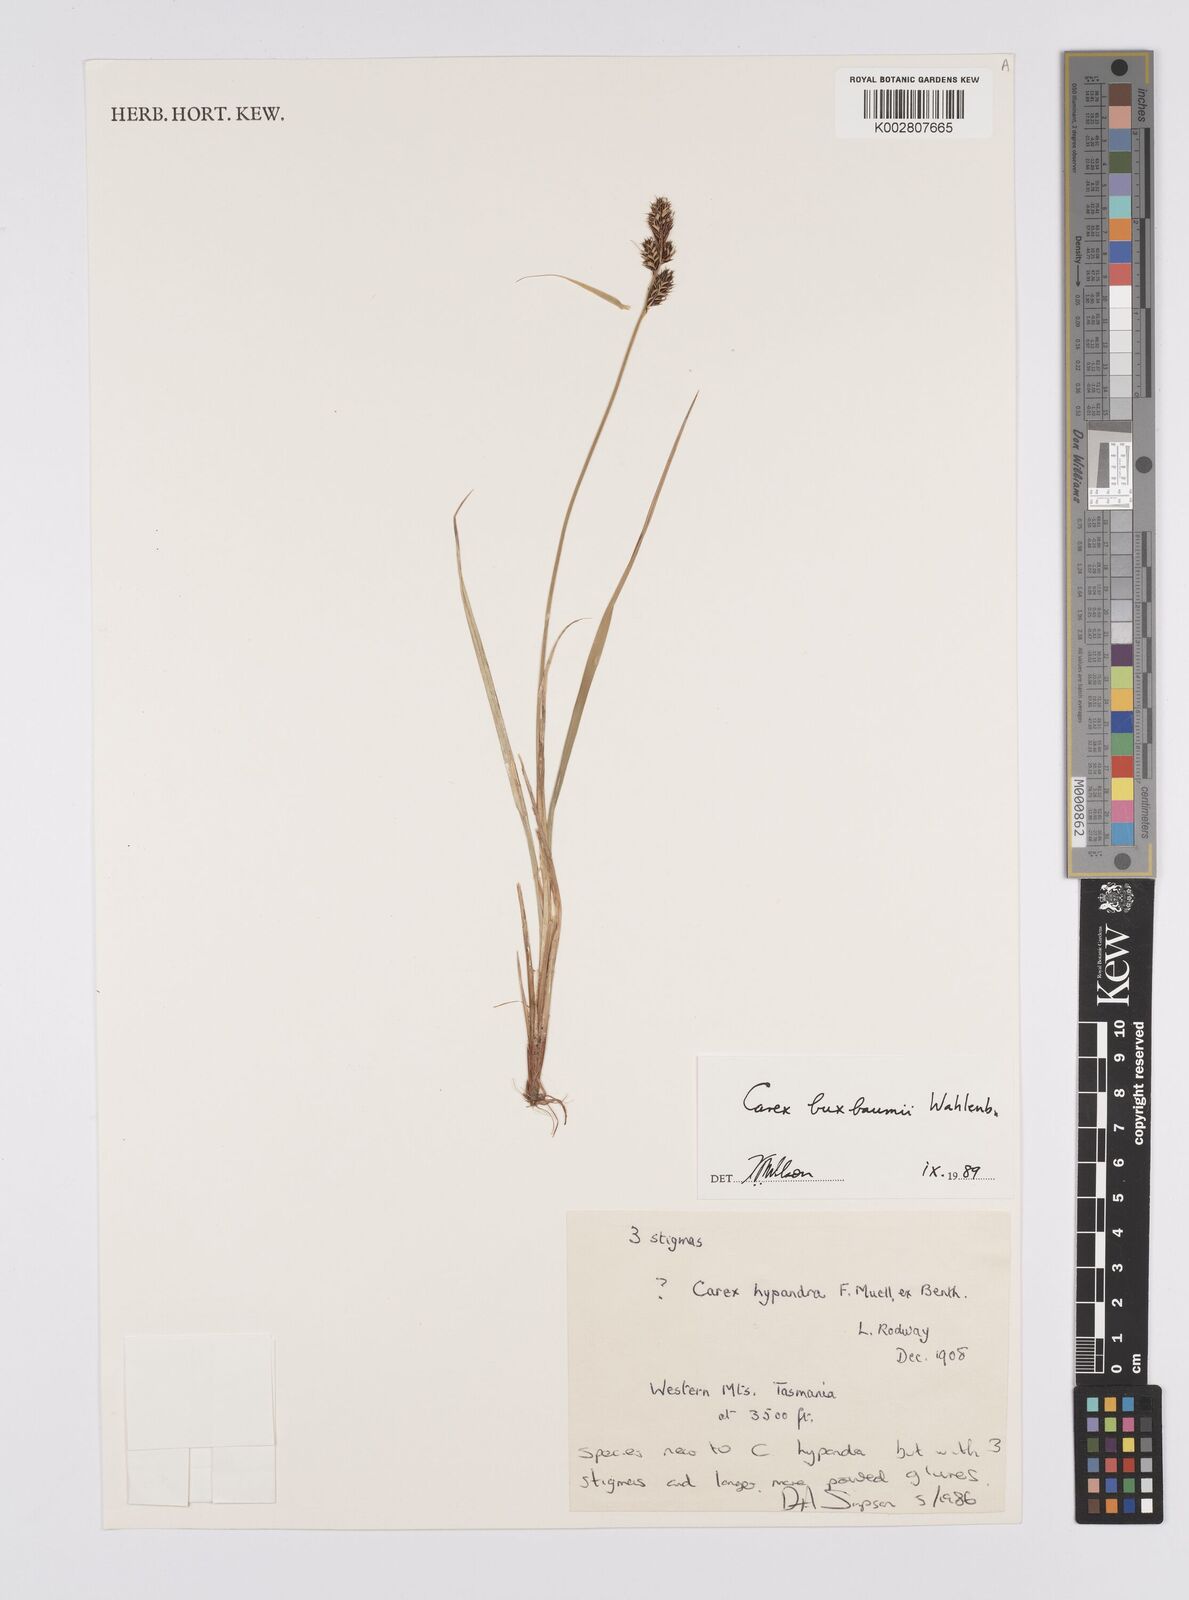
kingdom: Plantae
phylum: Tracheophyta
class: Liliopsida
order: Poales
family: Cyperaceae
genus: Carex
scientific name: Carex buxbaumii
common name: Club sedge
